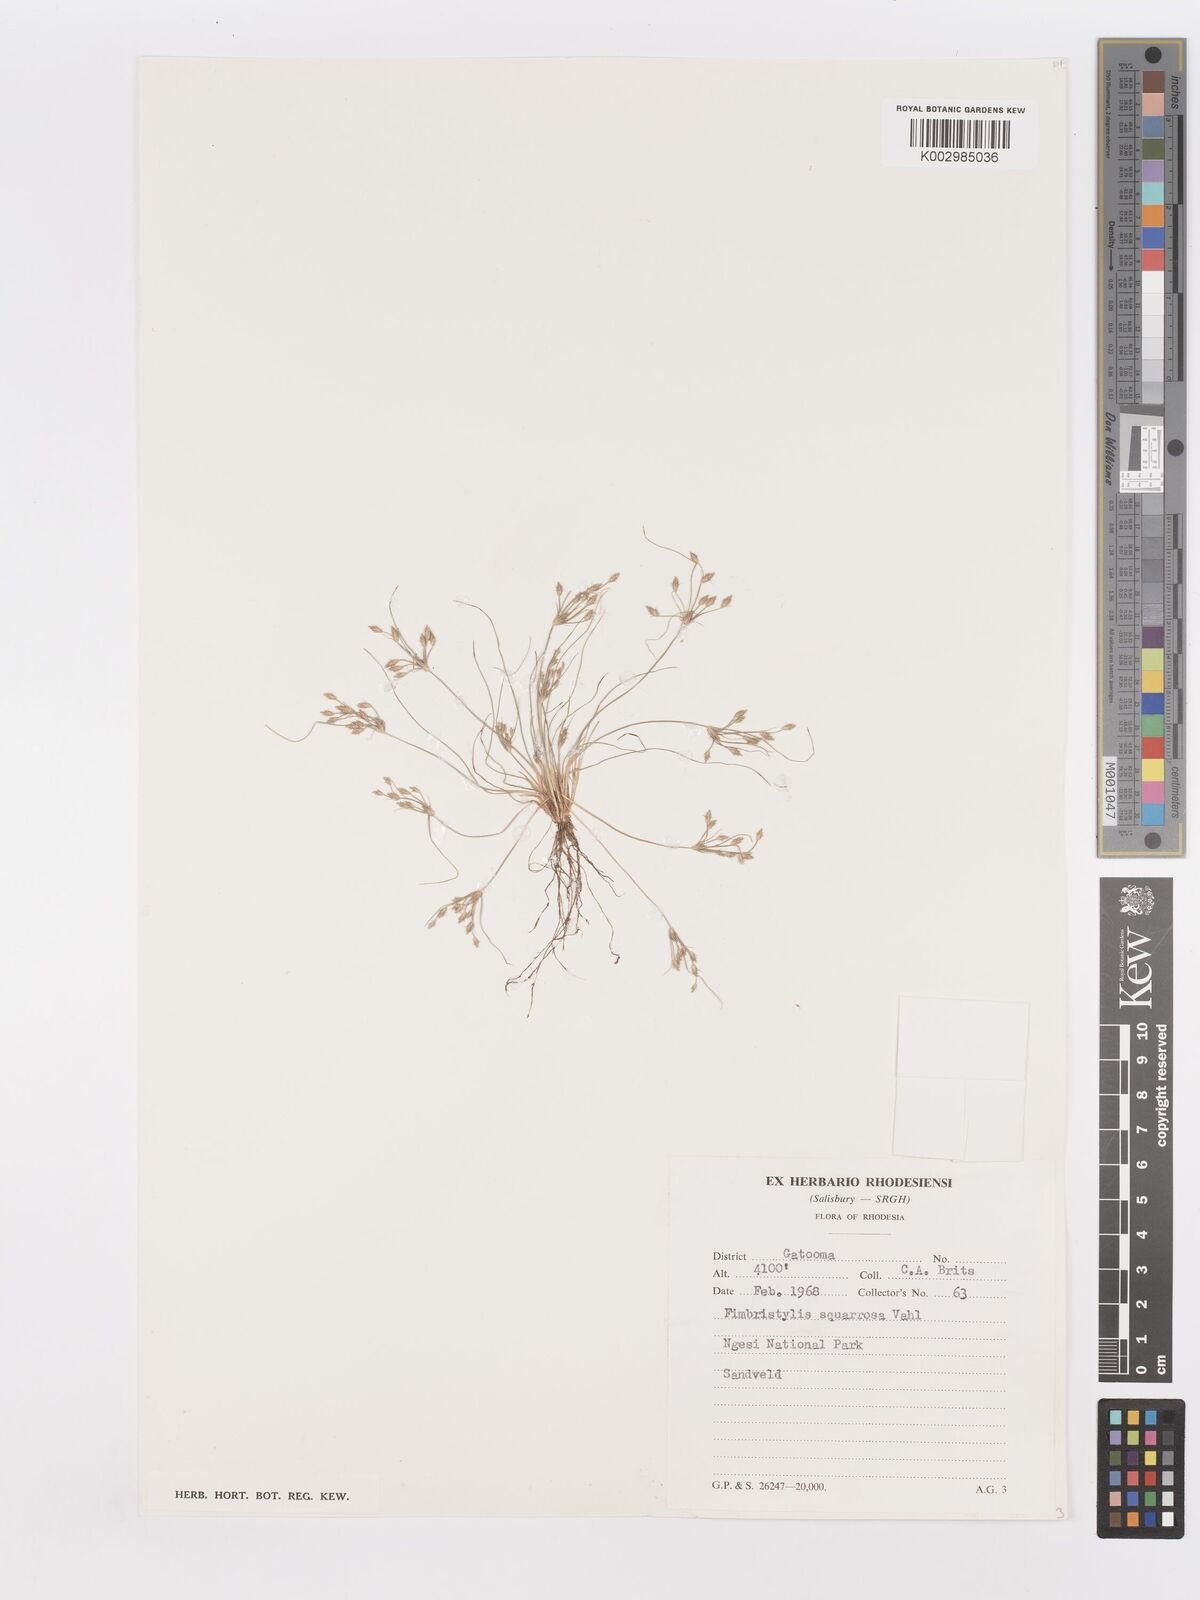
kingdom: Plantae
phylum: Tracheophyta
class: Liliopsida
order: Poales
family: Cyperaceae
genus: Fimbristylis
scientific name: Fimbristylis squarrosa
